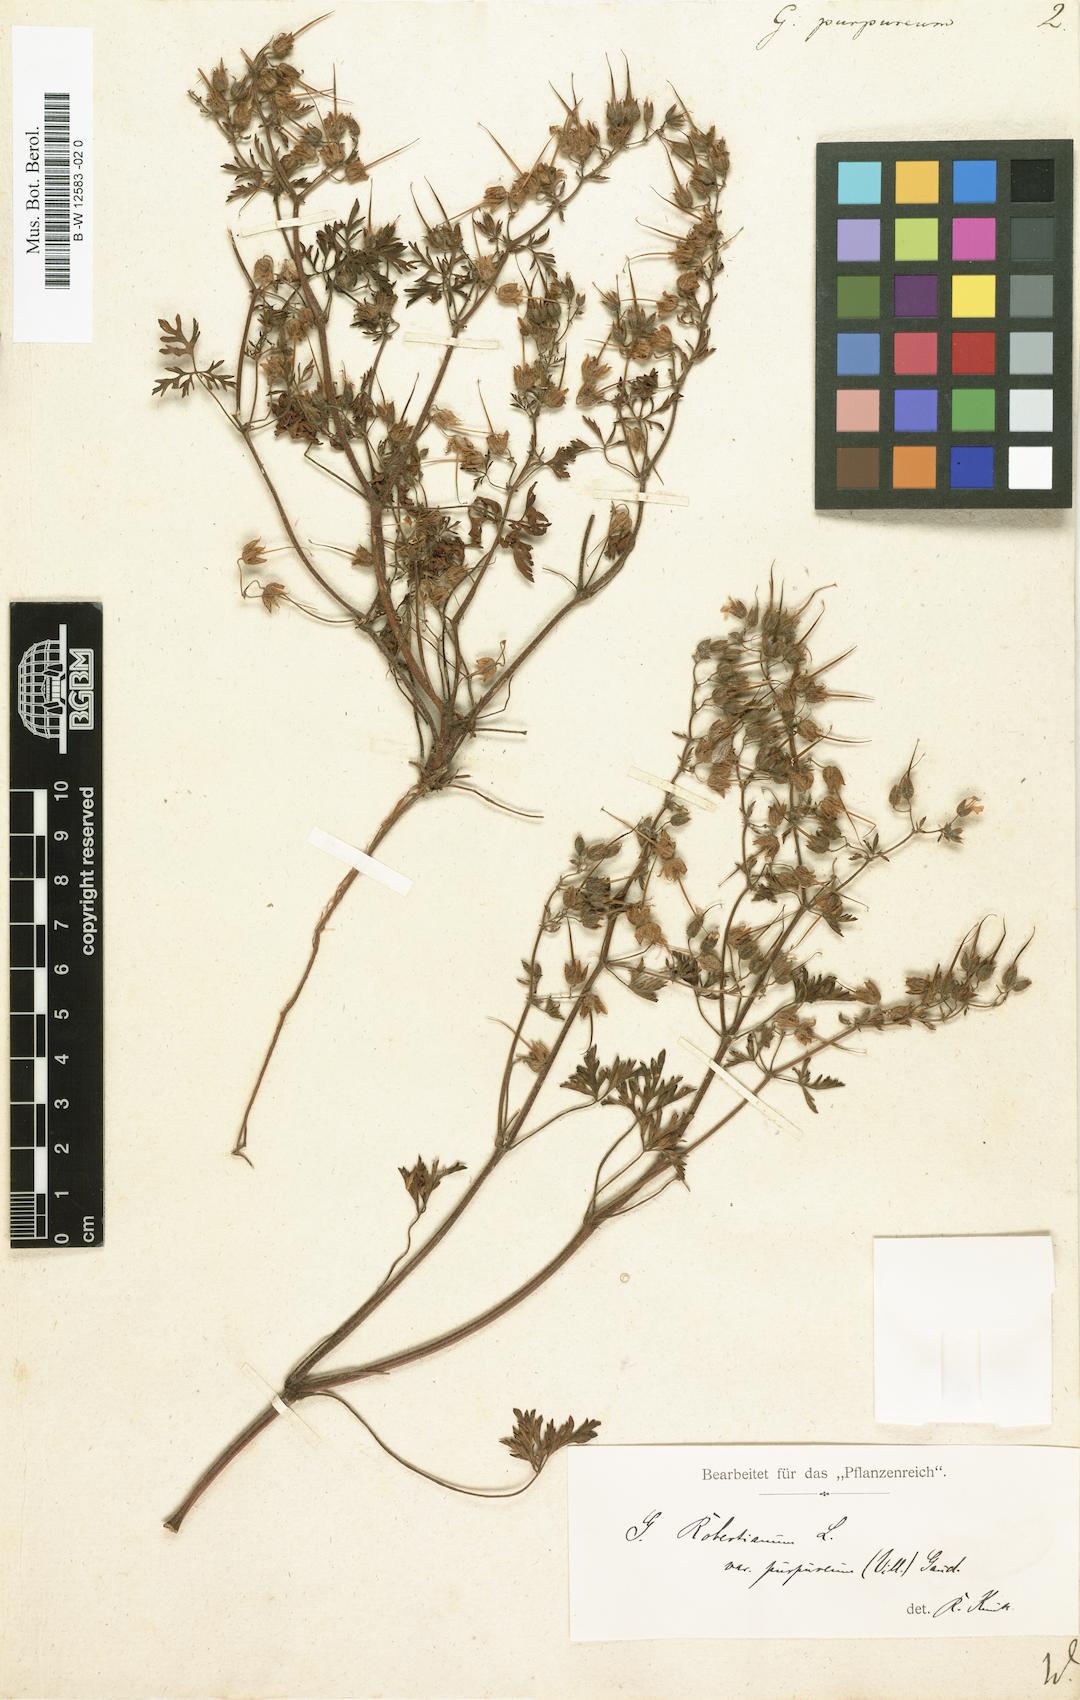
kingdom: Plantae
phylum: Tracheophyta
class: Magnoliopsida
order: Geraniales
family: Geraniaceae
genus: Geranium
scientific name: Geranium purpureum
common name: Little-robin
